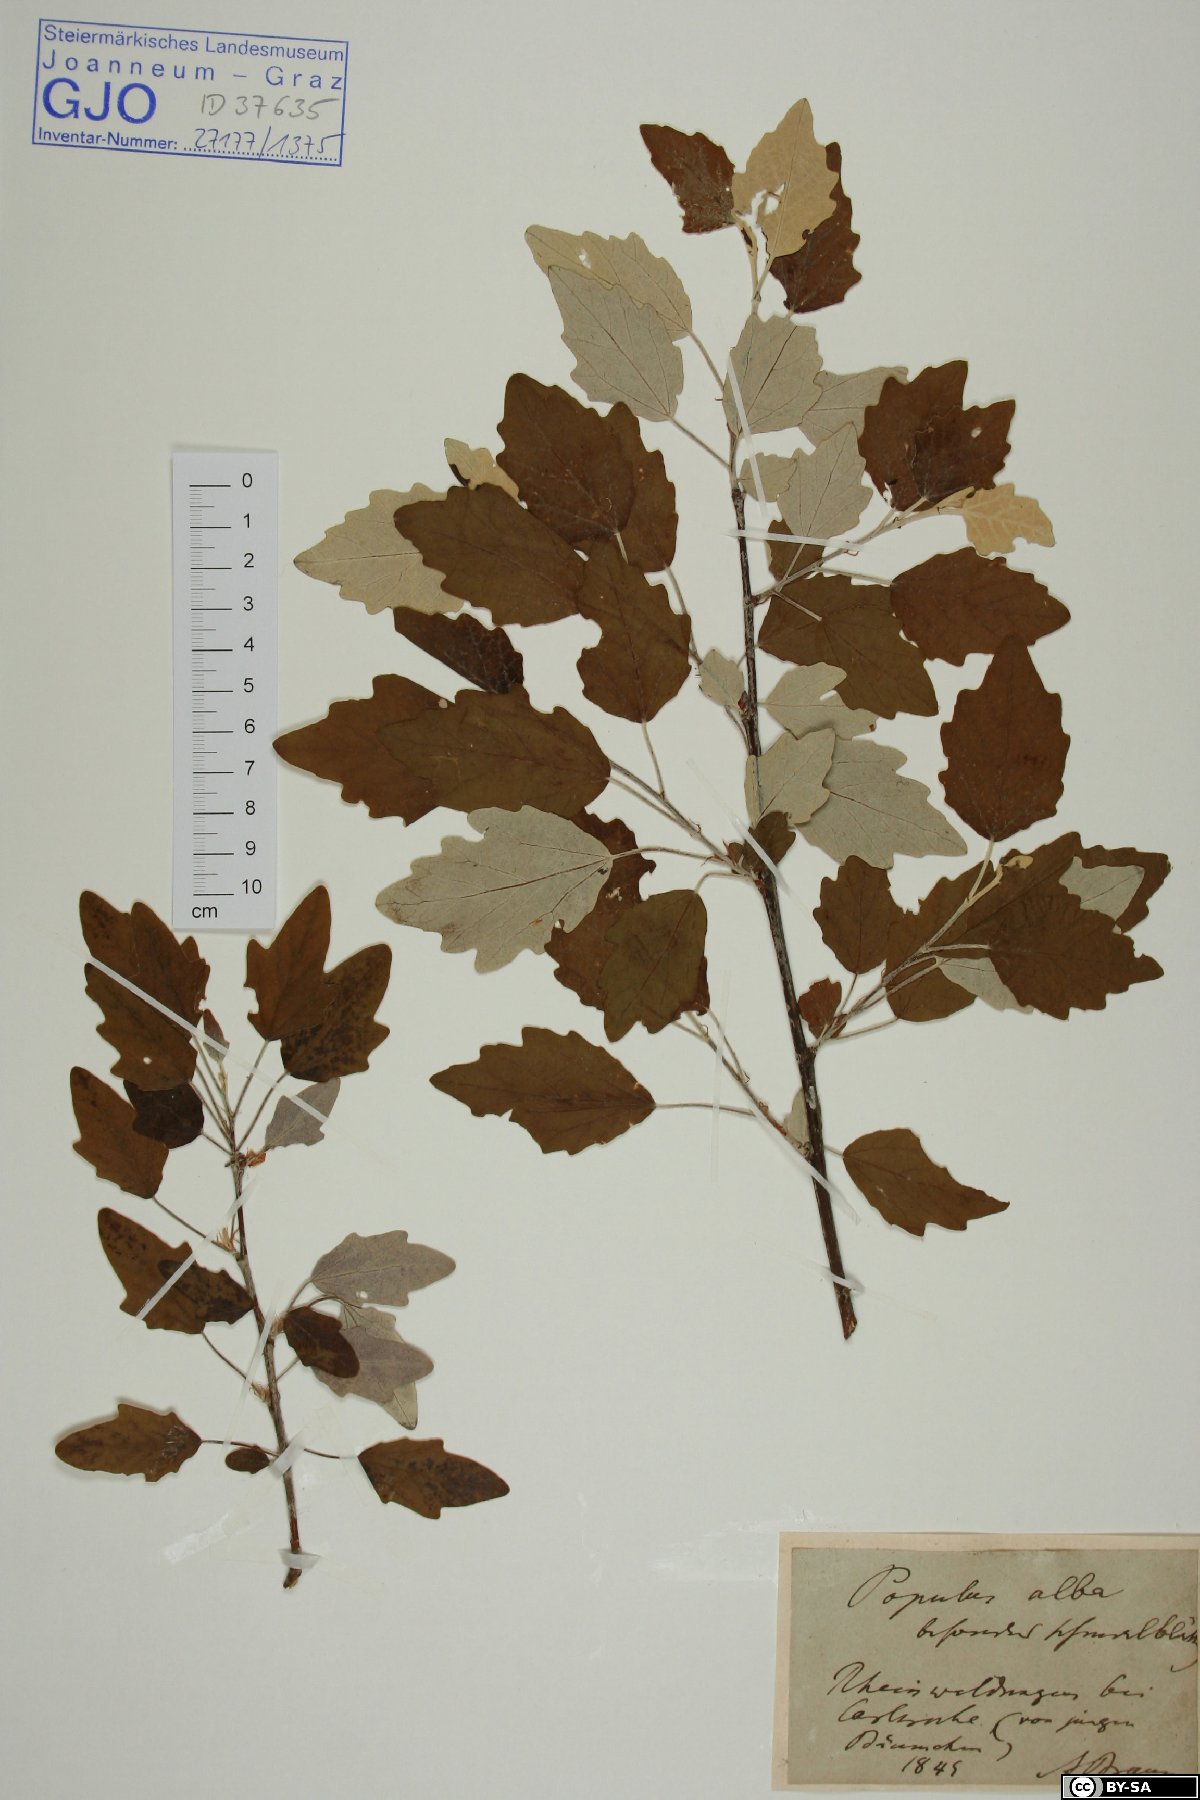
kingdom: Plantae
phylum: Tracheophyta
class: Magnoliopsida
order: Malpighiales
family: Salicaceae
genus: Populus
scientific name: Populus alba
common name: White poplar
